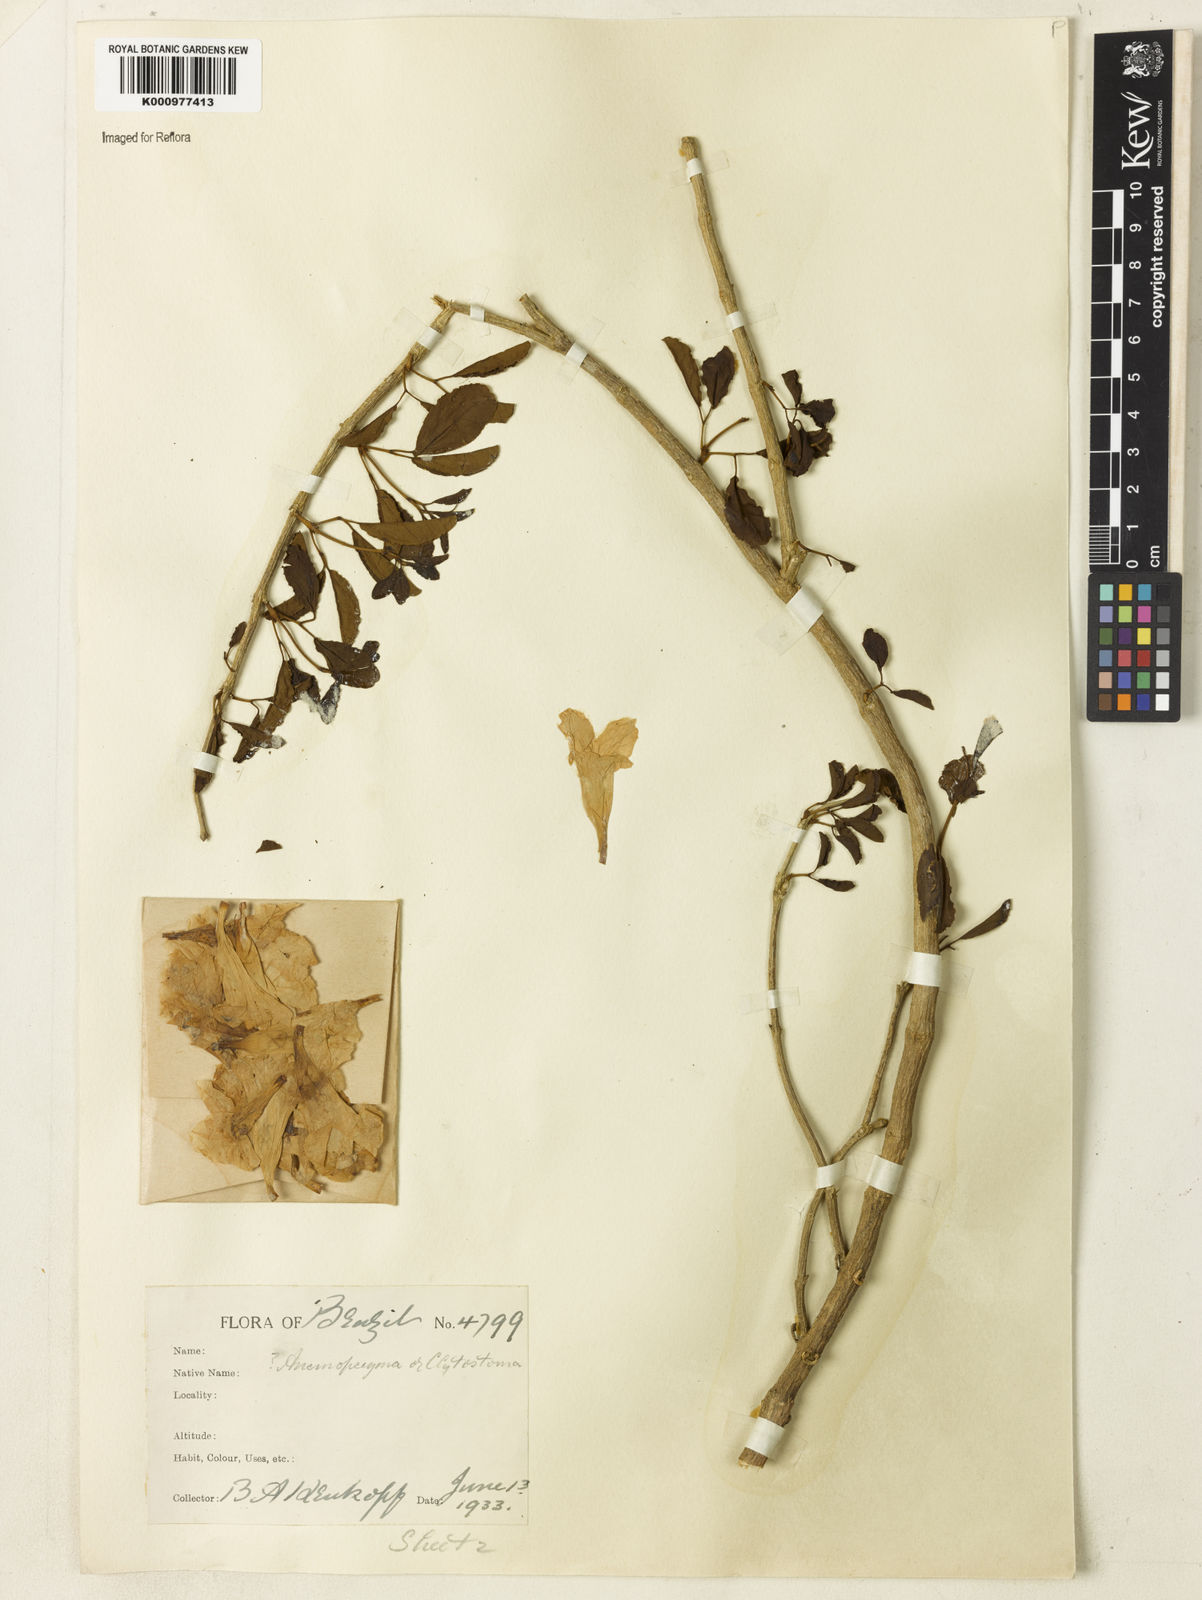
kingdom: Plantae
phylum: Tracheophyta
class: Magnoliopsida
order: Lamiales
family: Bignoniaceae
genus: Anemopaegma
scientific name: Anemopaegma
